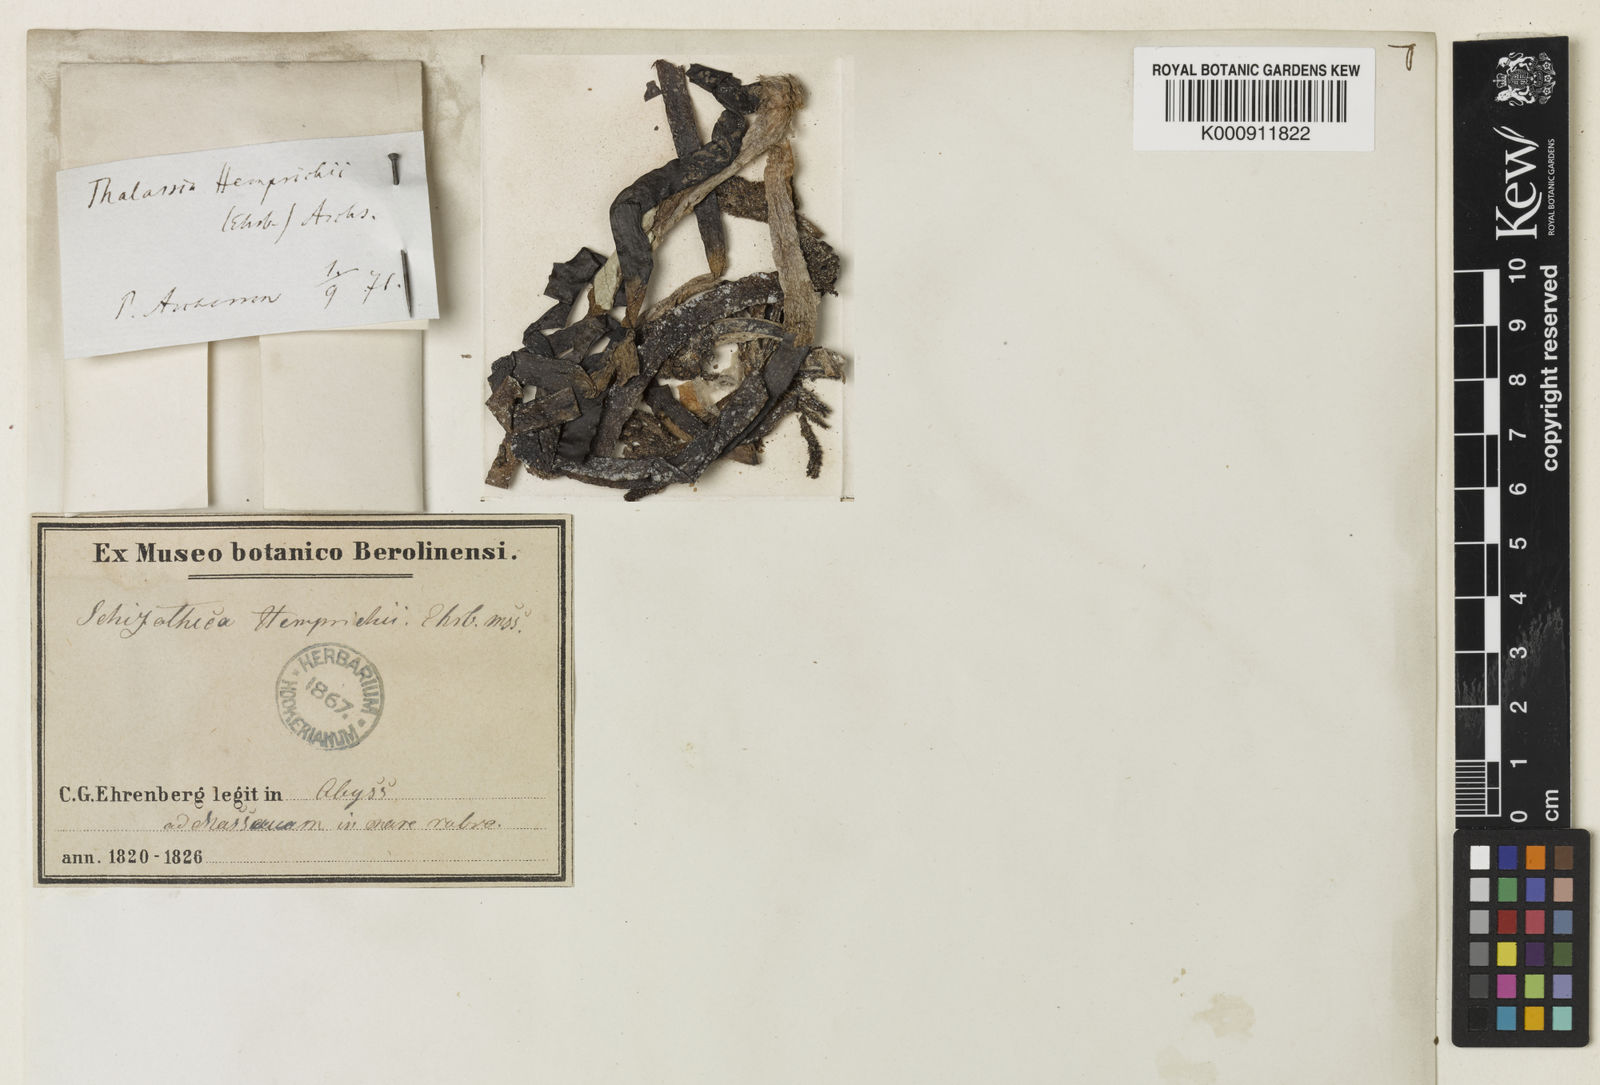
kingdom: Plantae
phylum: Tracheophyta
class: Liliopsida
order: Alismatales
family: Hydrocharitaceae
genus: Thalassia
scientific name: Thalassia hemprichii
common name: Species code: th
